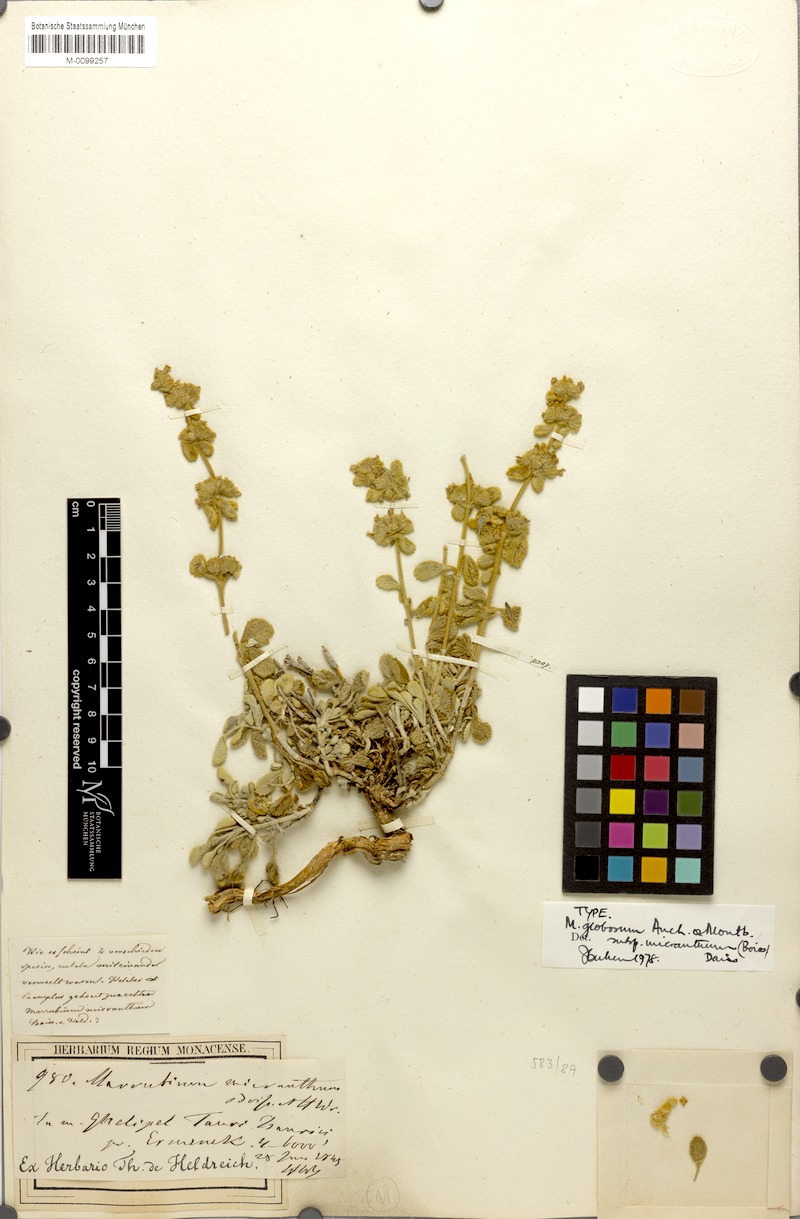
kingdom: Plantae
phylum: Tracheophyta
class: Magnoliopsida
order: Lamiales
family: Lamiaceae
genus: Marrubium
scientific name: Marrubium globosum
